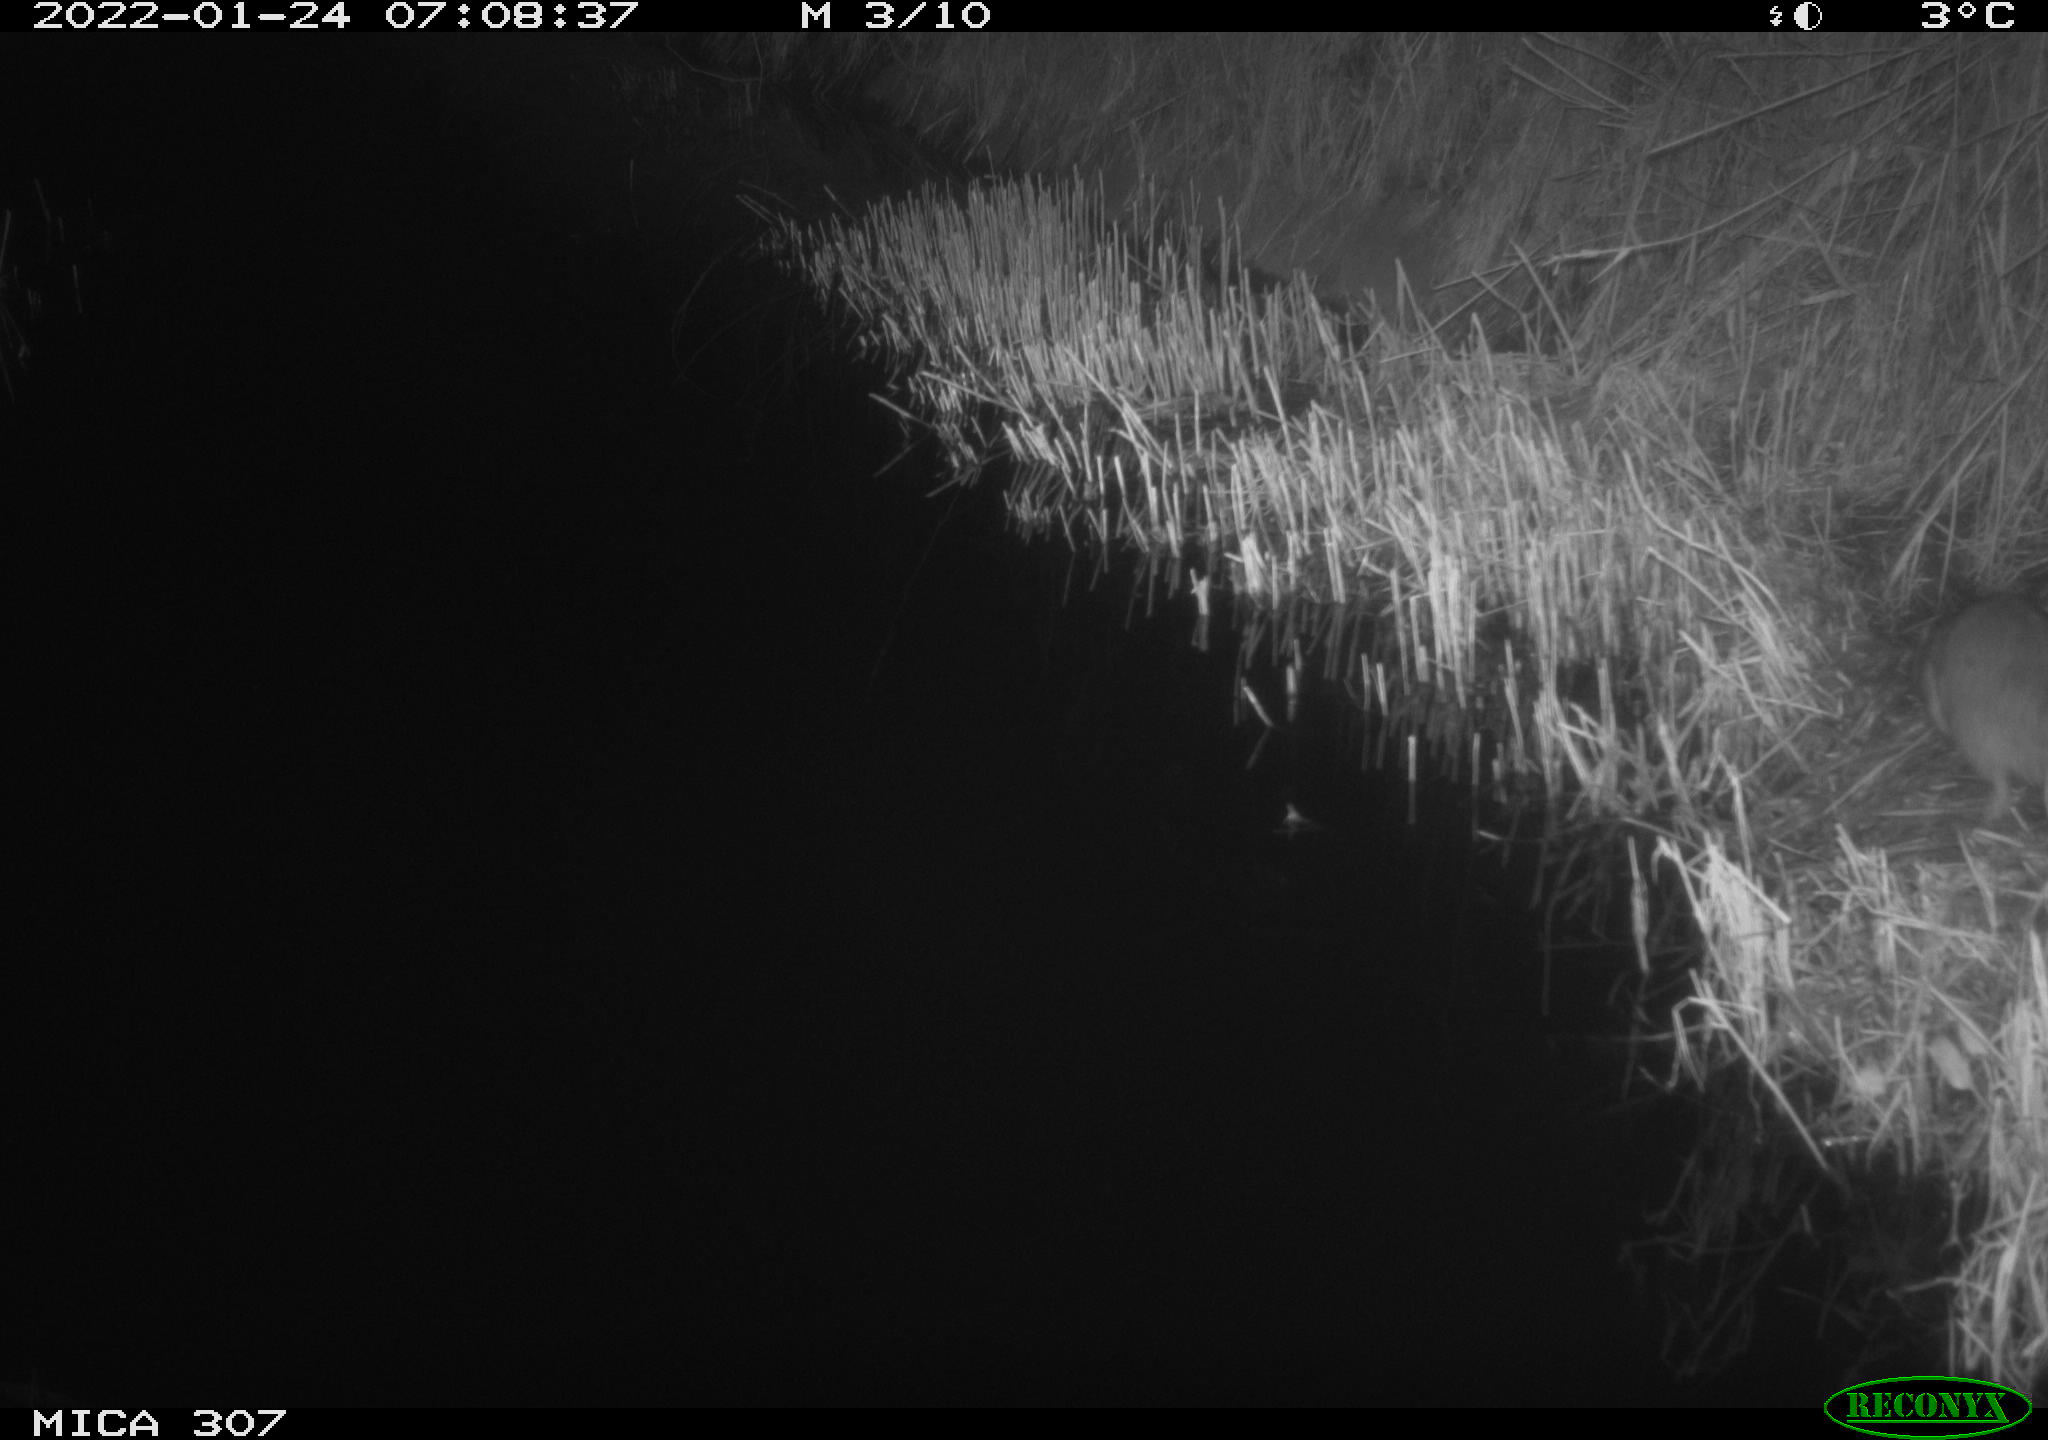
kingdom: Animalia
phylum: Chordata
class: Mammalia
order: Rodentia
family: Muridae
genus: Rattus
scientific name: Rattus norvegicus
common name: Brown rat
